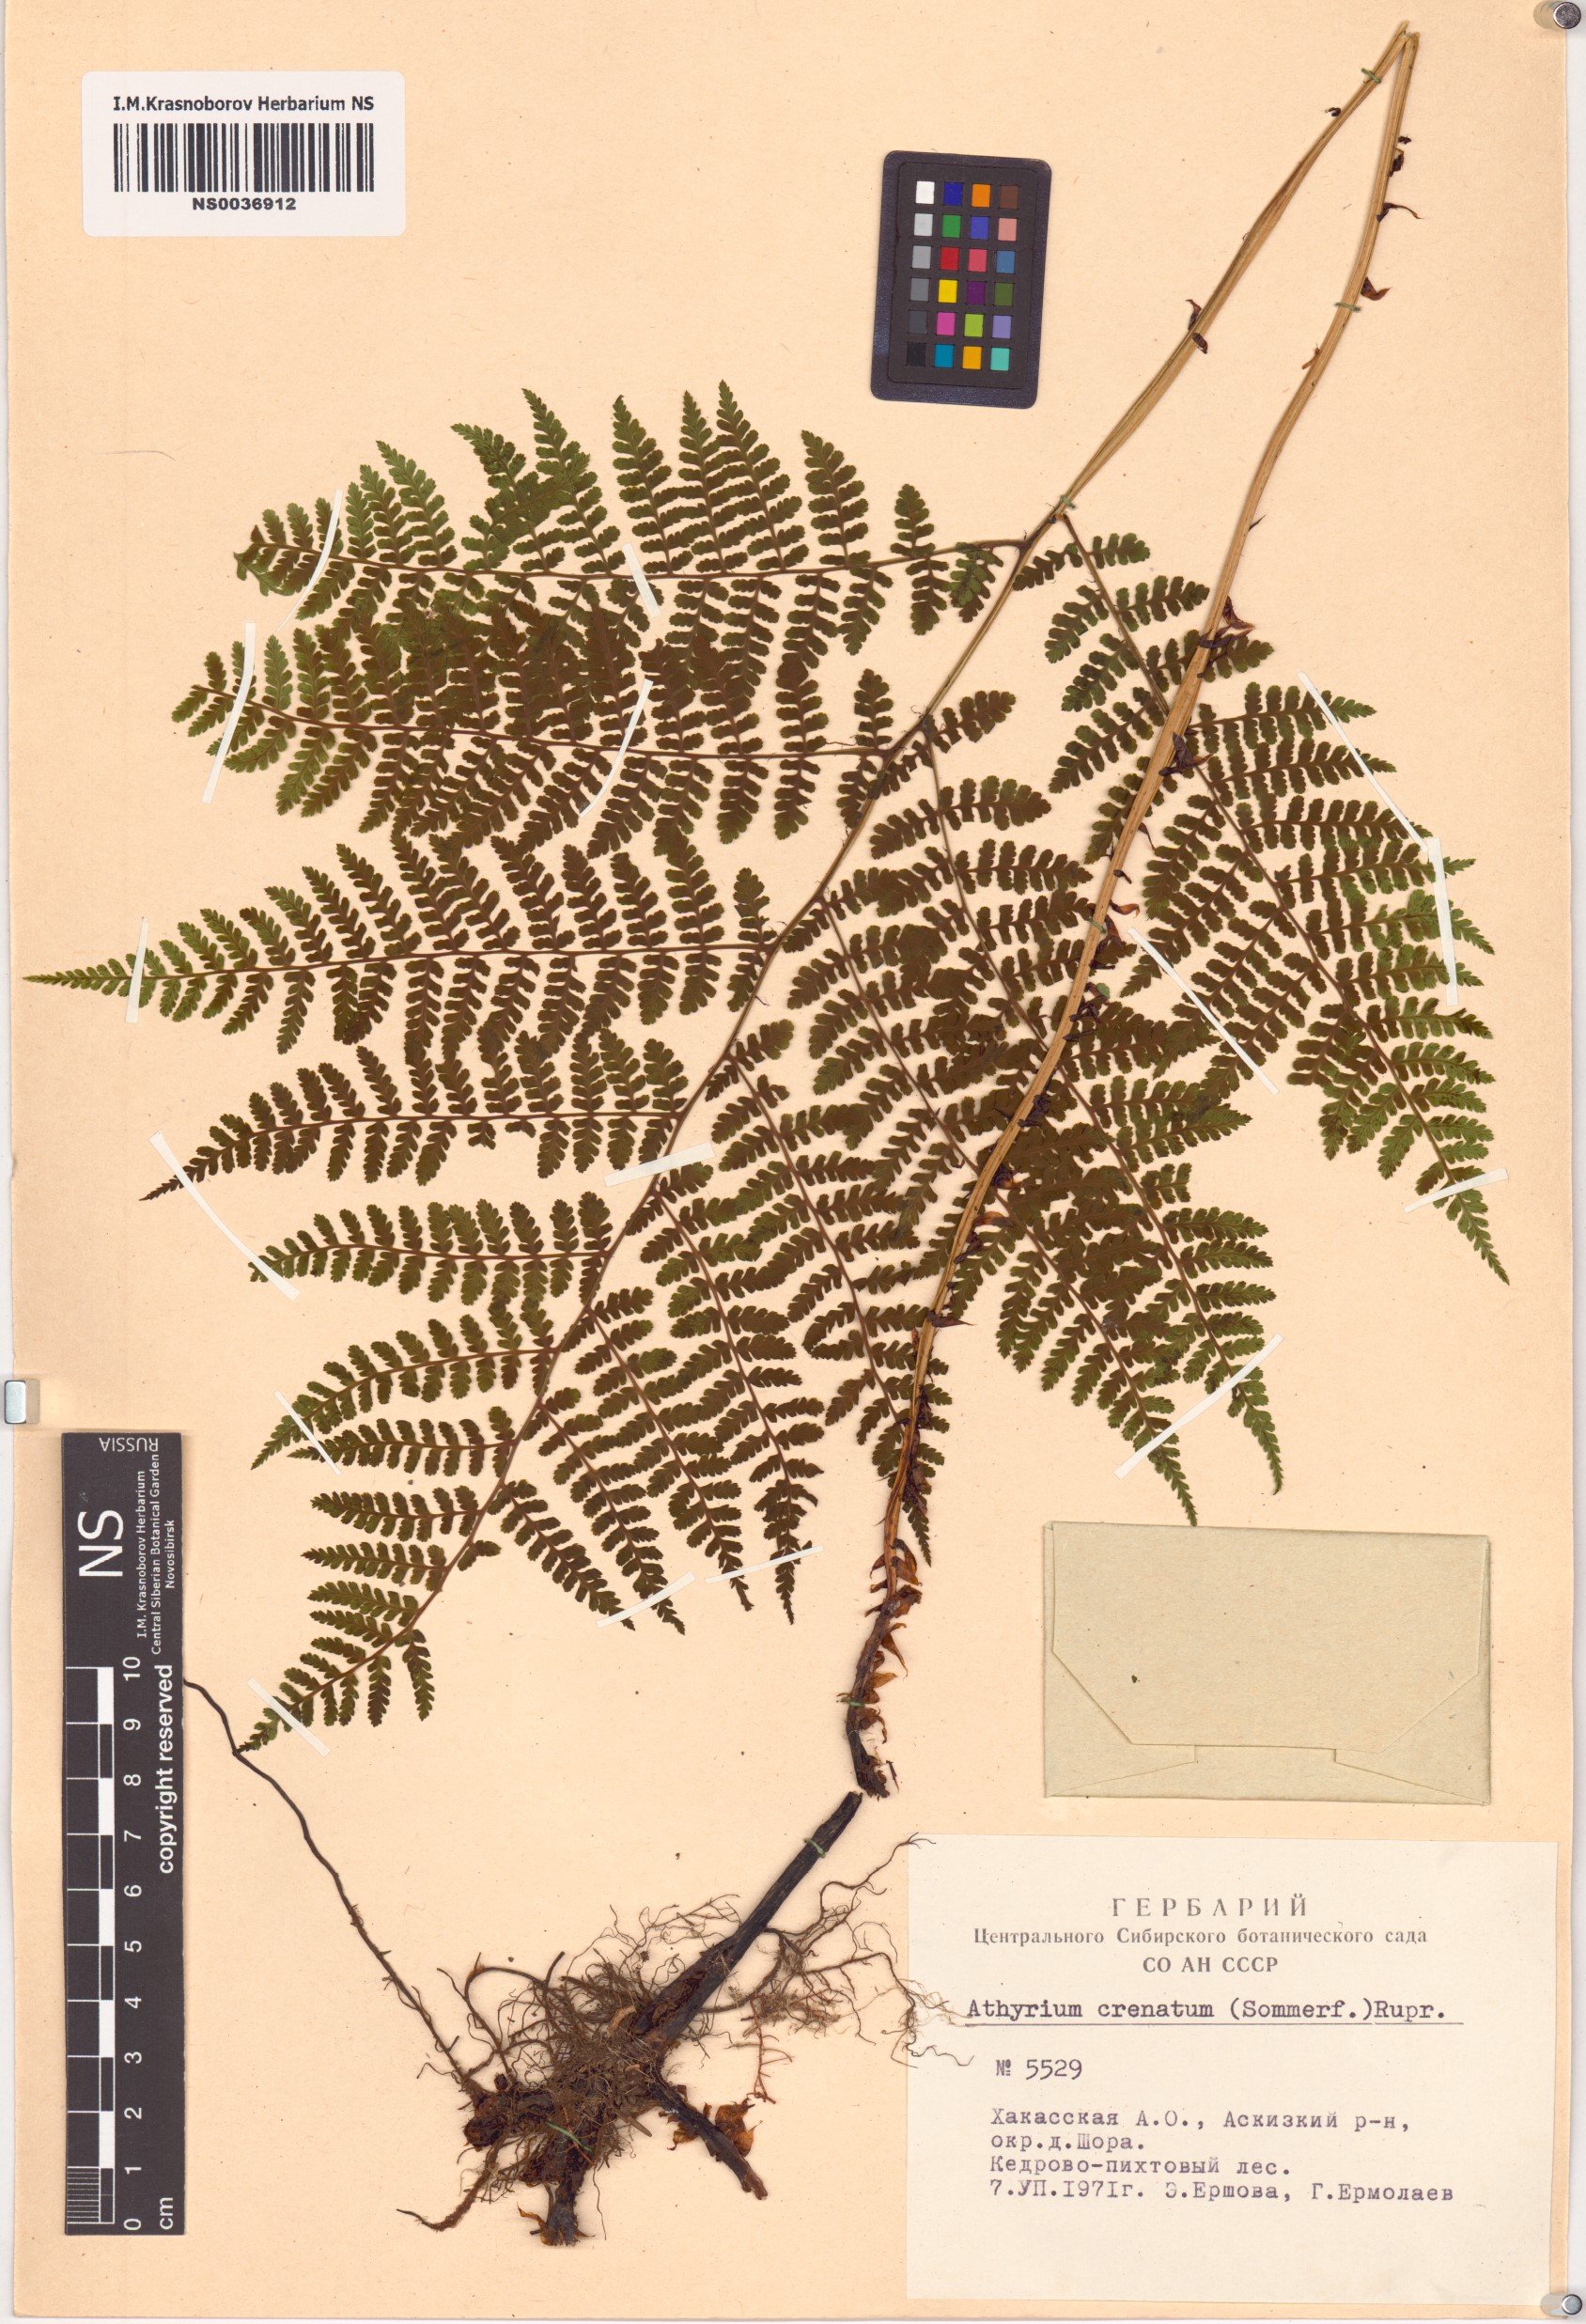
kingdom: Plantae
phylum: Tracheophyta
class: Polypodiopsida
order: Polypodiales
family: Athyriaceae
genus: Diplazium
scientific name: Diplazium sibiricum
